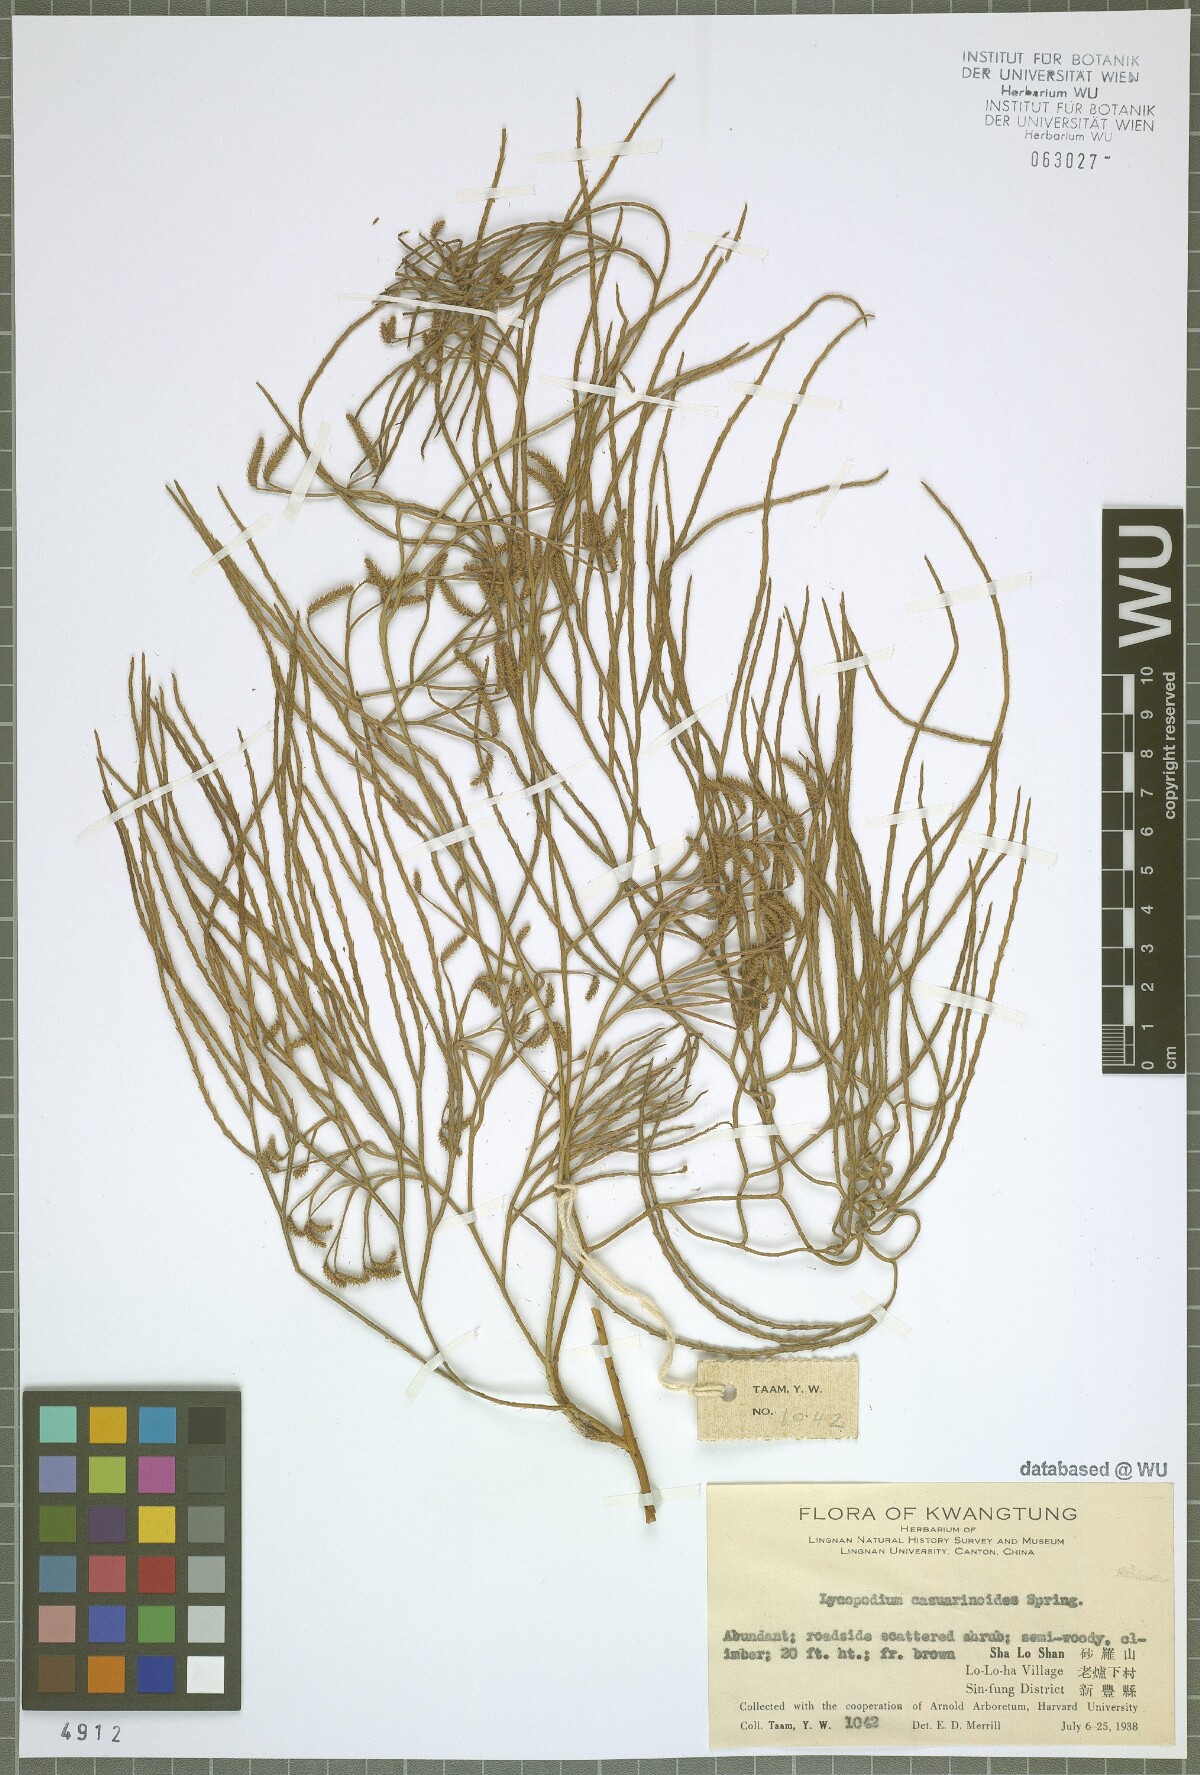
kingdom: Plantae
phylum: Tracheophyta
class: Lycopodiopsida
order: Lycopodiales
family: Lycopodiaceae
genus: Lycopodiastrum
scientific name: Lycopodiastrum casuarinoides
